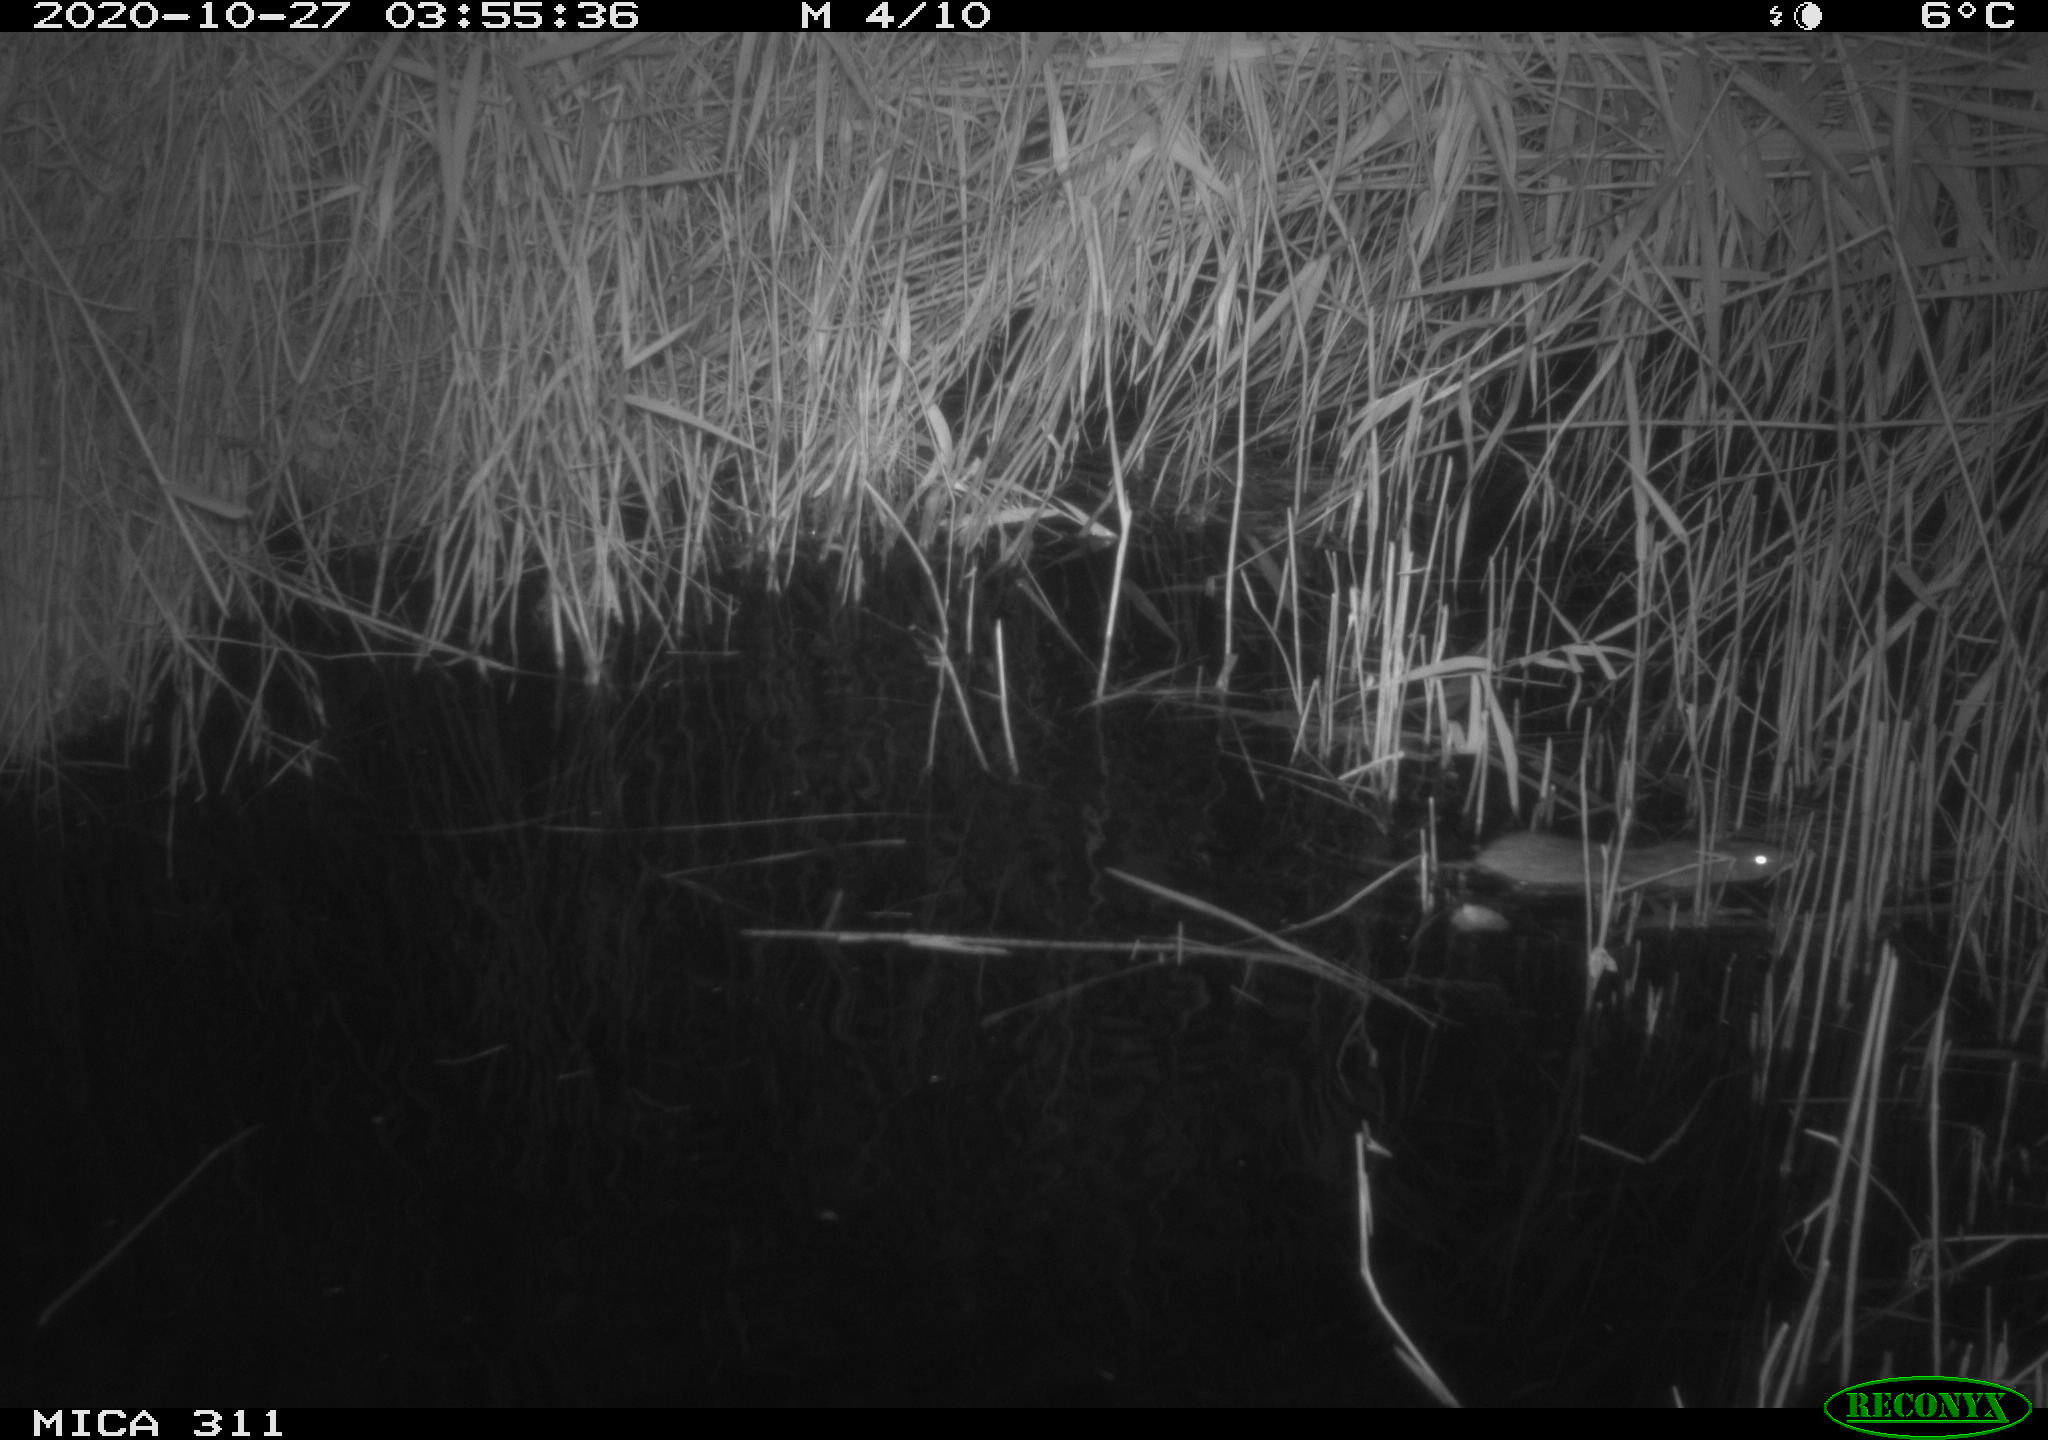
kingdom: Animalia
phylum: Chordata
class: Mammalia
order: Rodentia
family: Muridae
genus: Rattus
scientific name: Rattus norvegicus
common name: Brown rat
